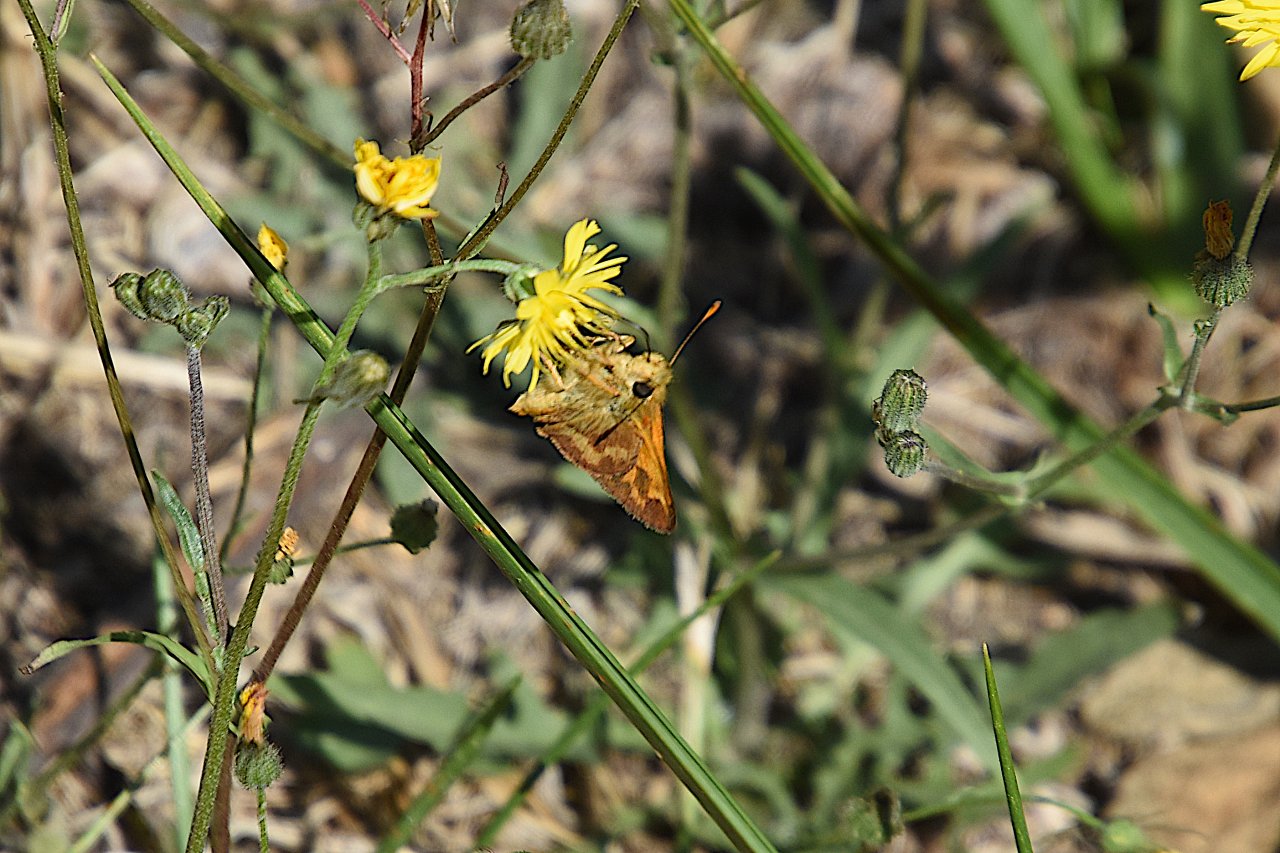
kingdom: Animalia
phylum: Arthropoda
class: Insecta
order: Lepidoptera
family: Hesperiidae
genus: Ochlodes
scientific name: Ochlodes sylvanoides
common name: Woodland Skipper
